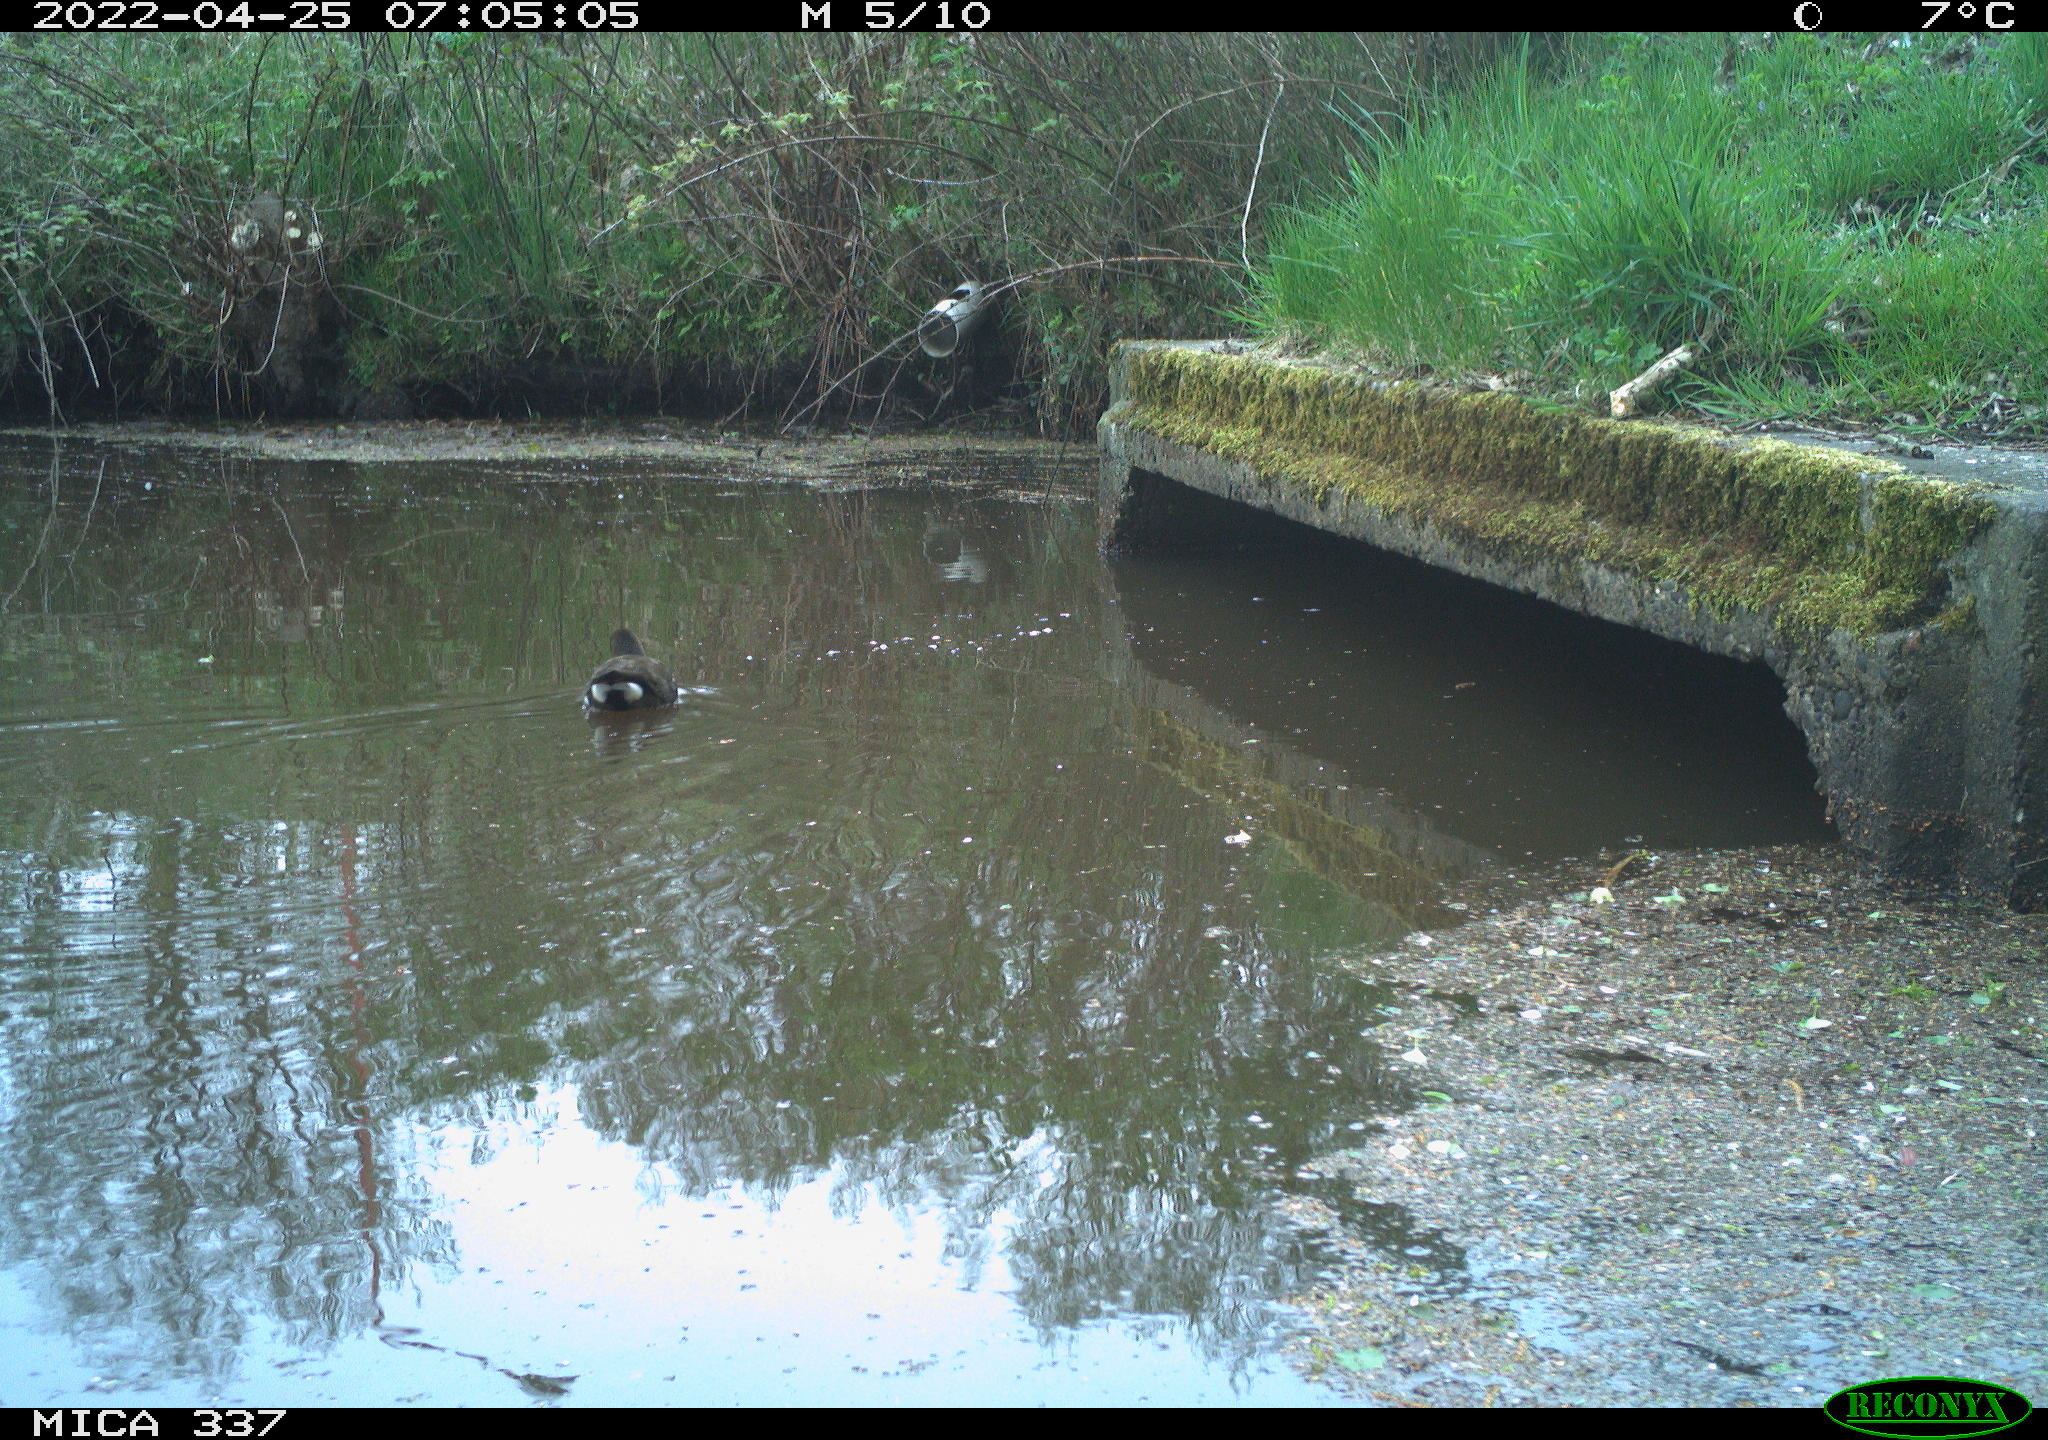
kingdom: Animalia
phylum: Chordata
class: Aves
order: Gruiformes
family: Rallidae
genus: Gallinula
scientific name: Gallinula chloropus
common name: Common moorhen
